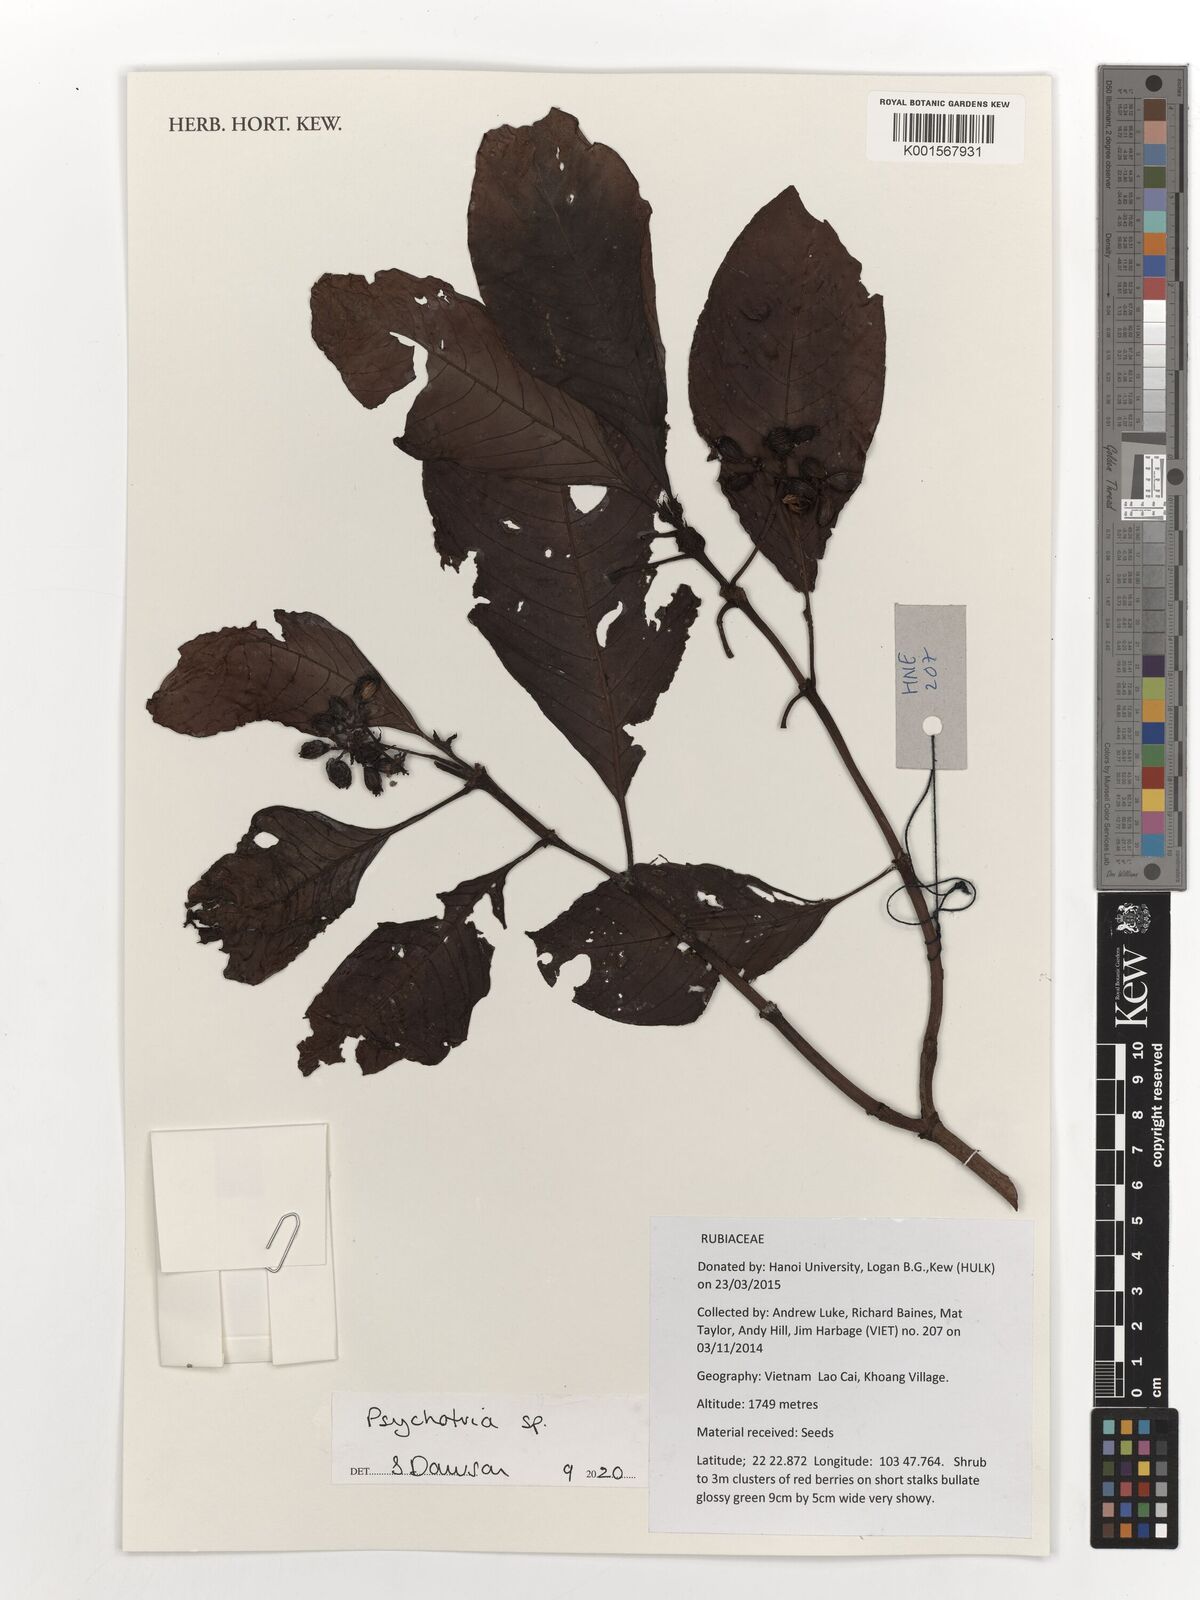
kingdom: Plantae
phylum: Tracheophyta
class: Magnoliopsida
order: Gentianales
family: Rubiaceae
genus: Psychotria
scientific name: Psychotria
